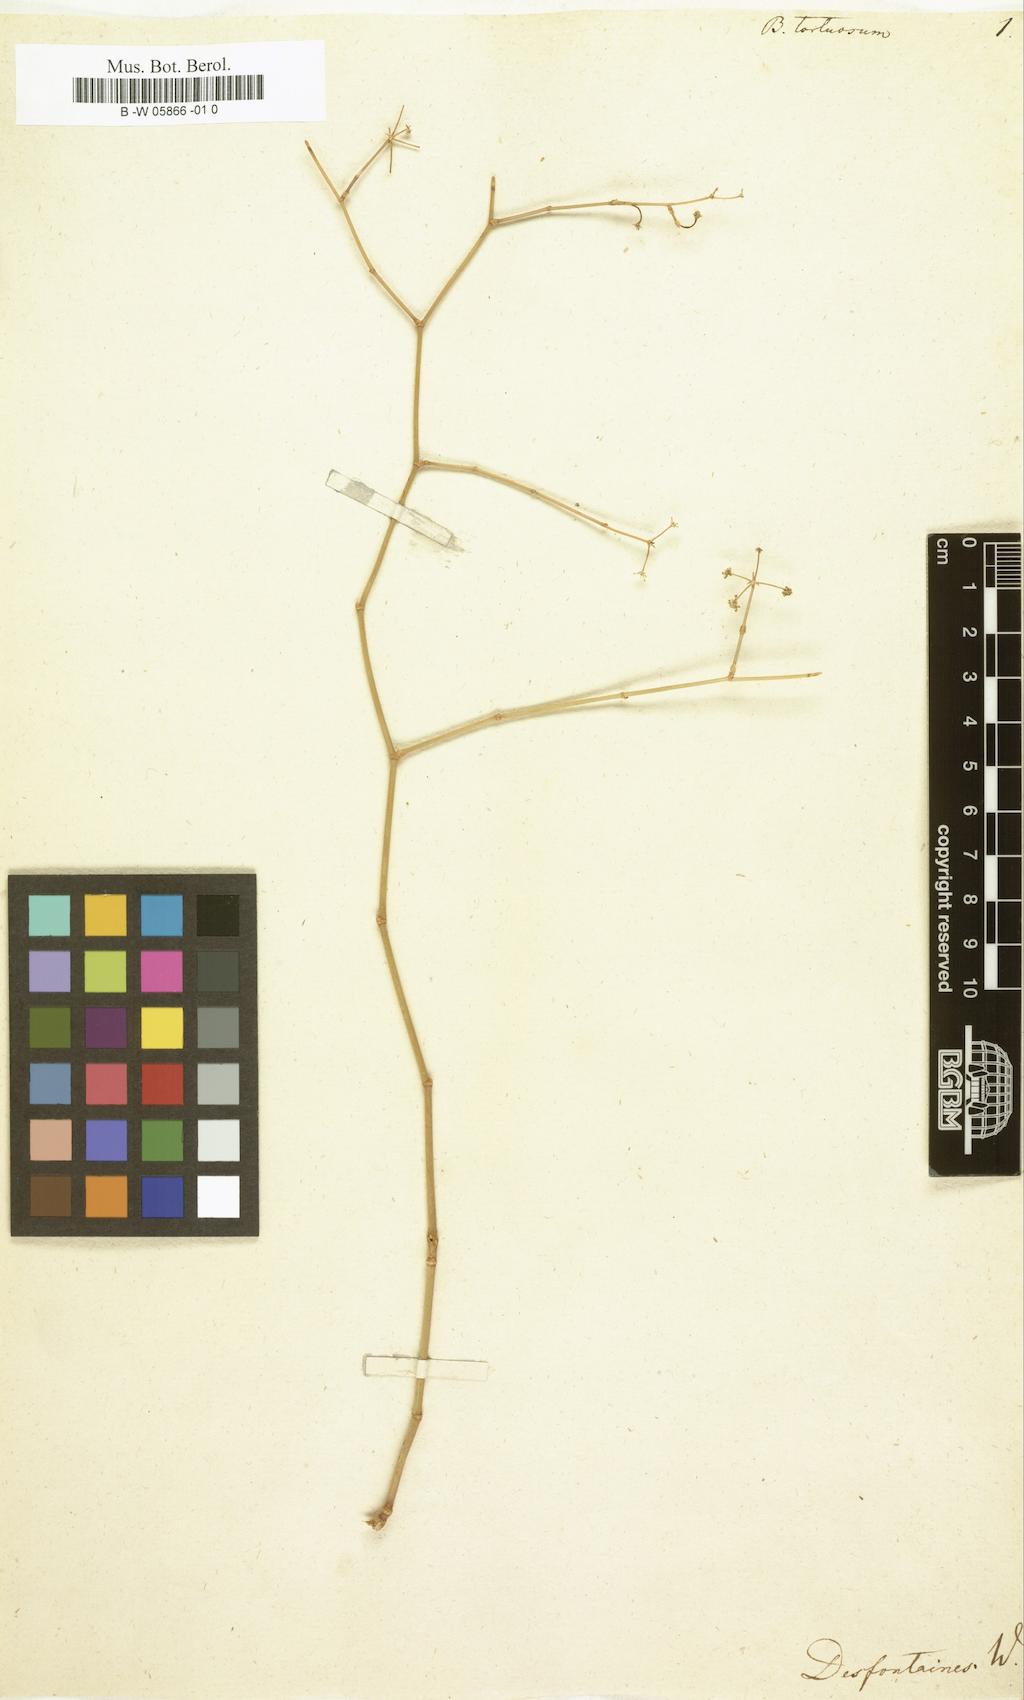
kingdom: Plantae
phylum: Tracheophyta
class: Magnoliopsida
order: Apiales
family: Apiaceae
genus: Deverra
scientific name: Deverra tortuosa
